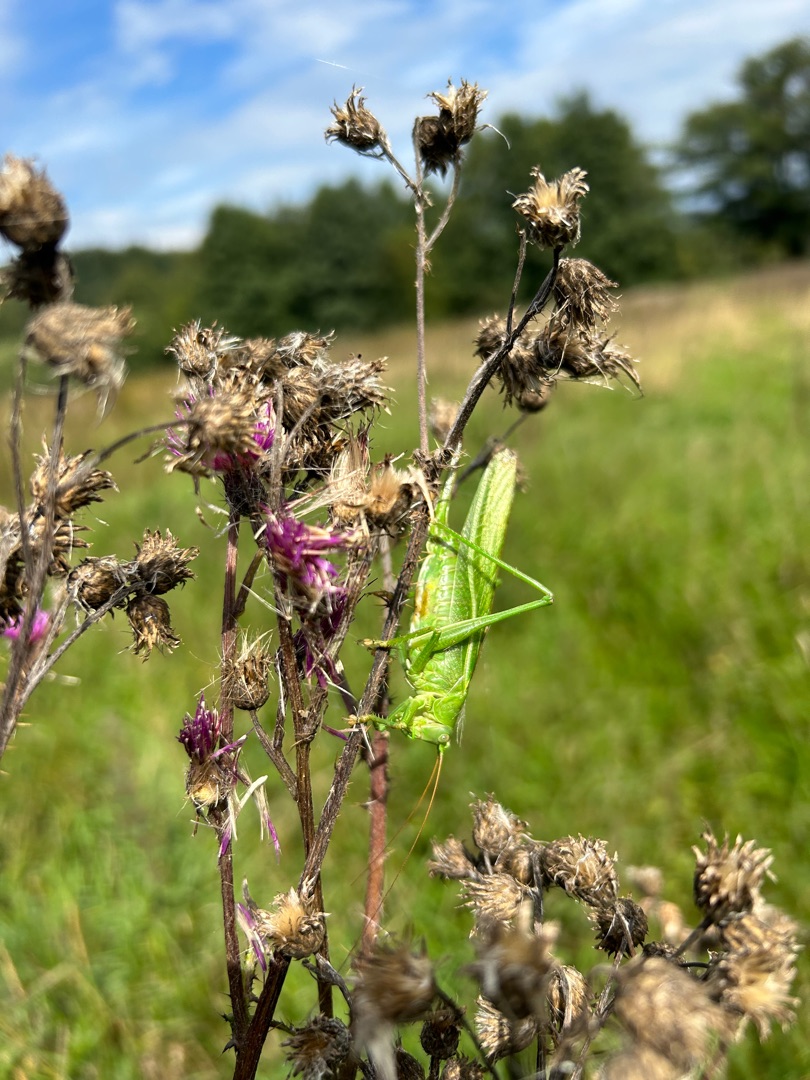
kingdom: Animalia
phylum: Arthropoda
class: Insecta
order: Orthoptera
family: Tettigoniidae
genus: Tettigonia
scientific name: Tettigonia viridissima
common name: Stor grøn løvgræshoppe
